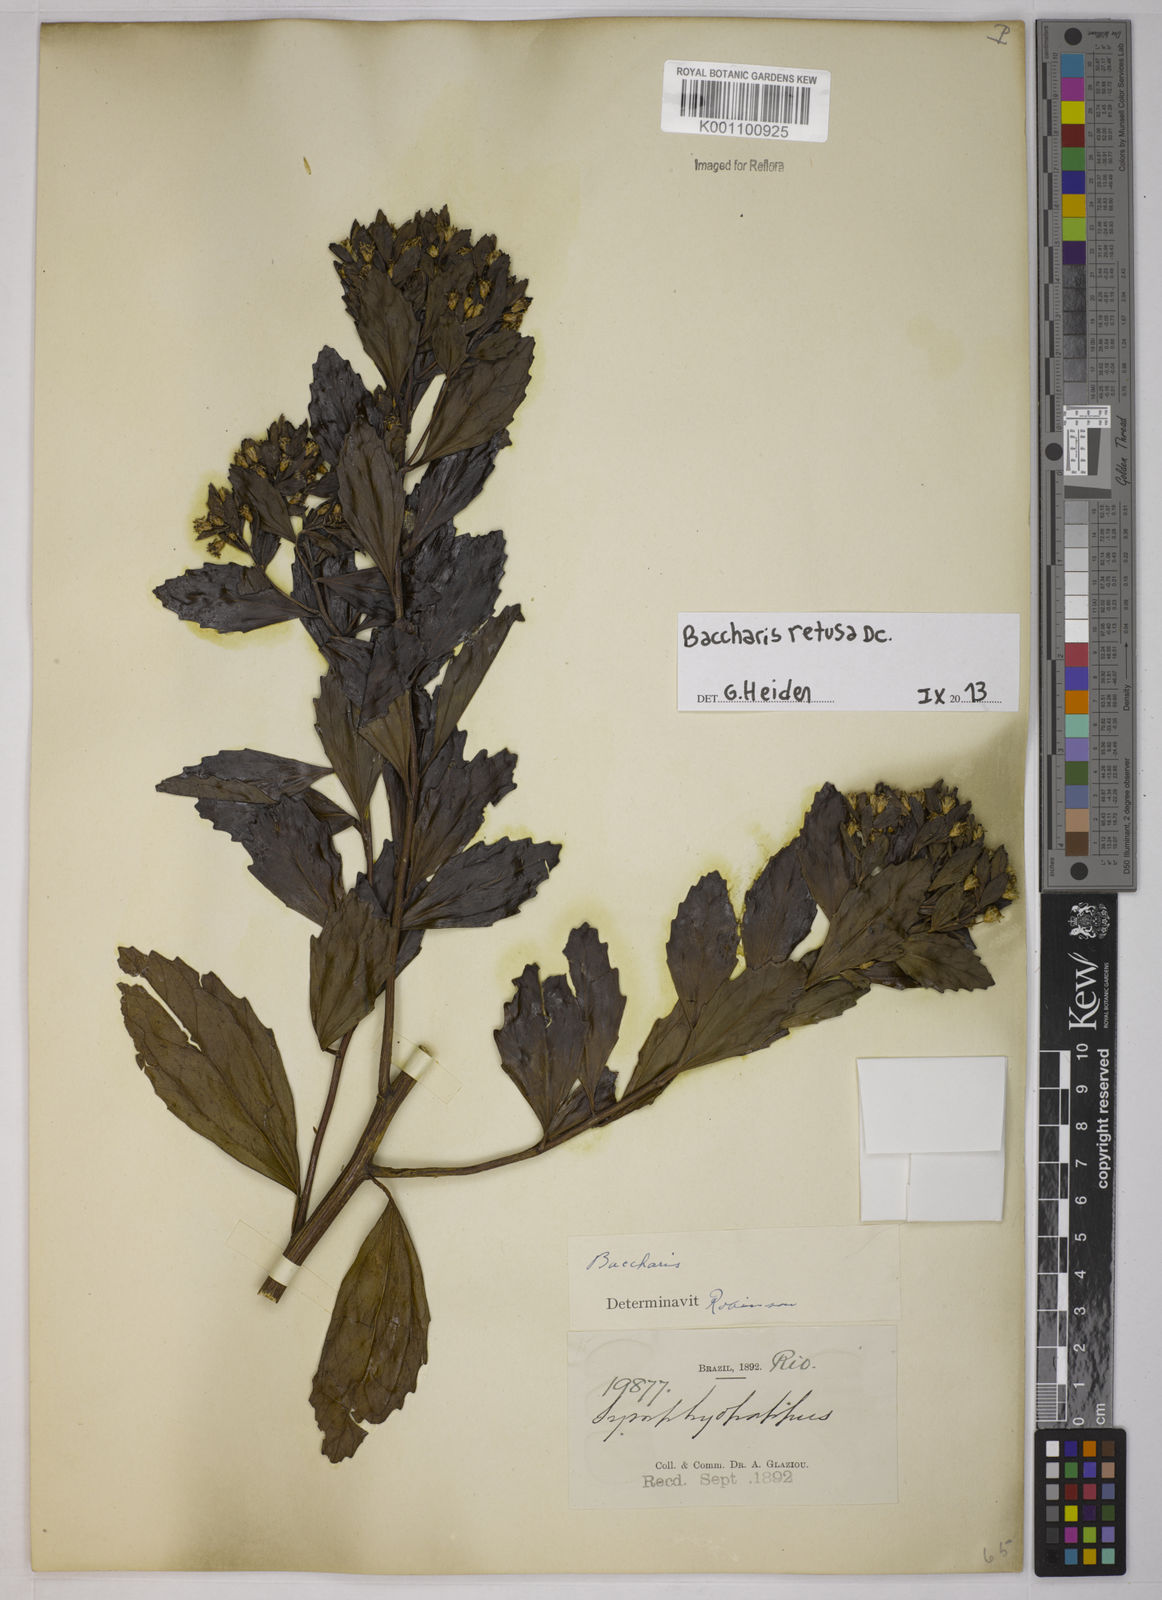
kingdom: Plantae
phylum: Tracheophyta
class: Magnoliopsida
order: Asterales
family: Asteraceae
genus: Baccharis
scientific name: Baccharis retusa
